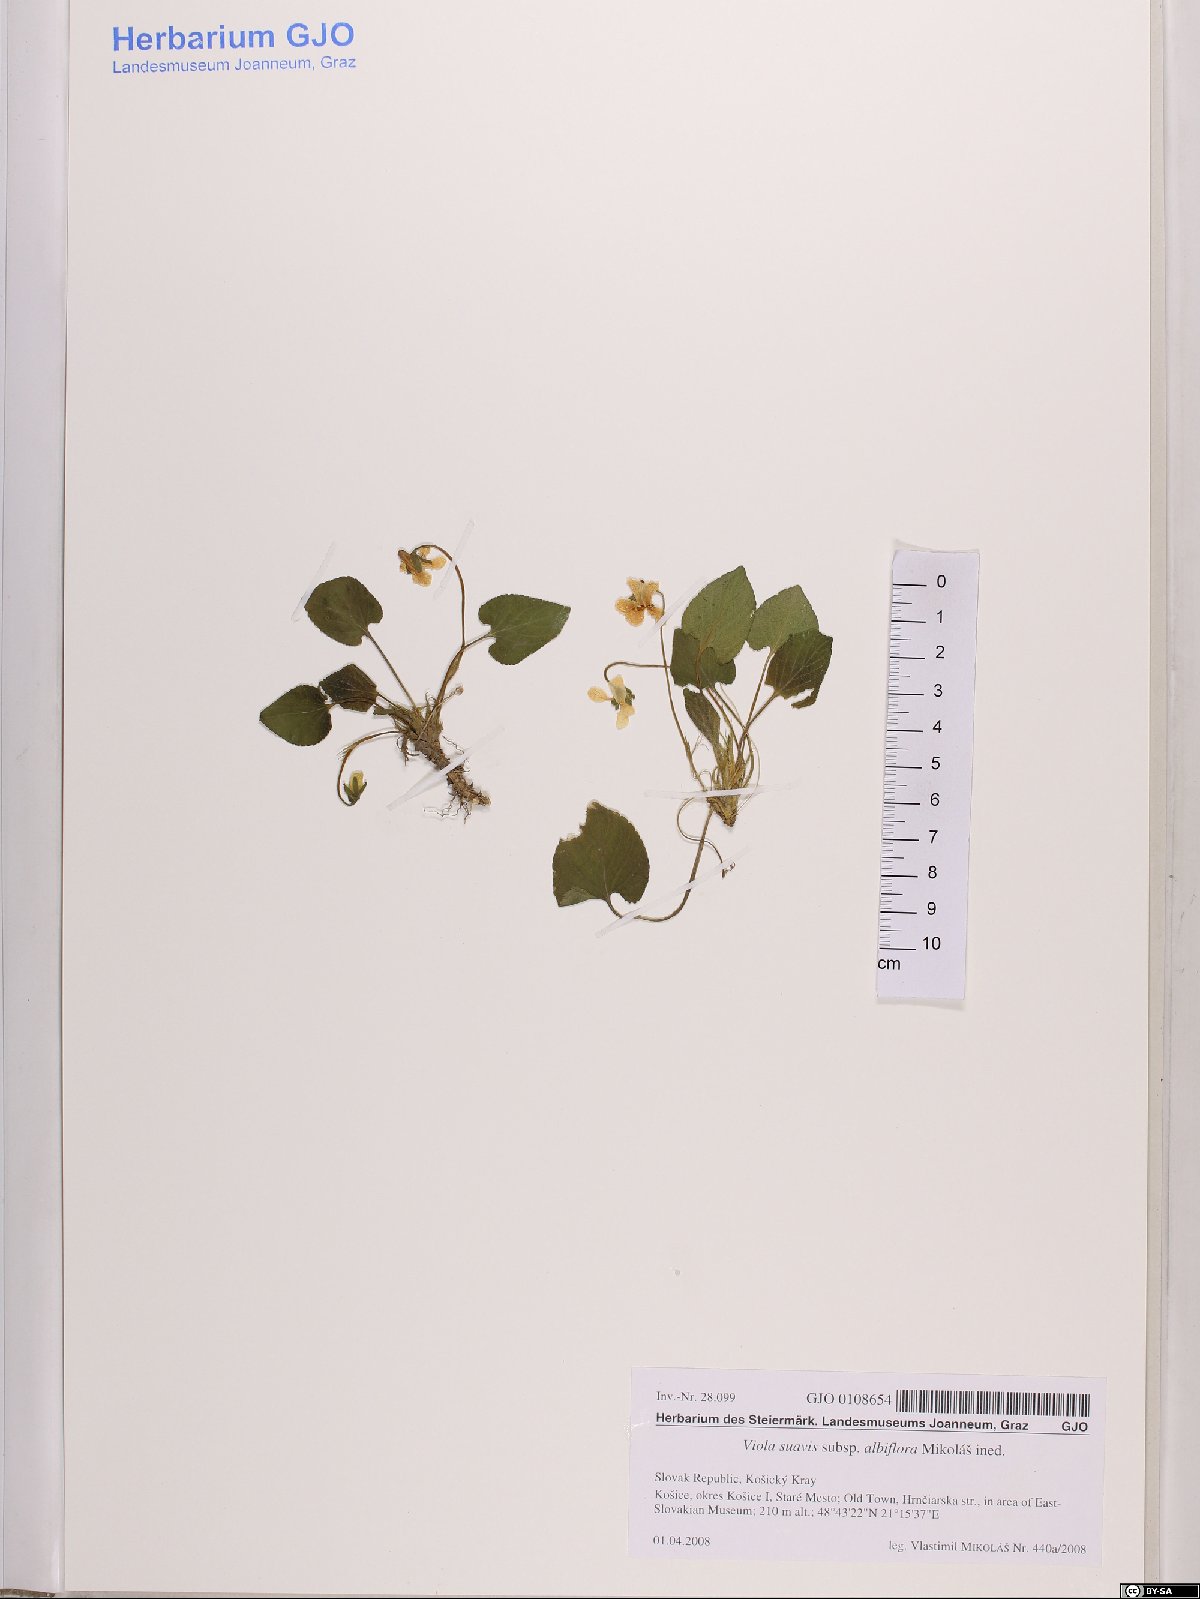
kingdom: Plantae
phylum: Tracheophyta
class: Magnoliopsida
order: Malpighiales
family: Violaceae
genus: Viola
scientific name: Viola suavis
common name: Russian violet
